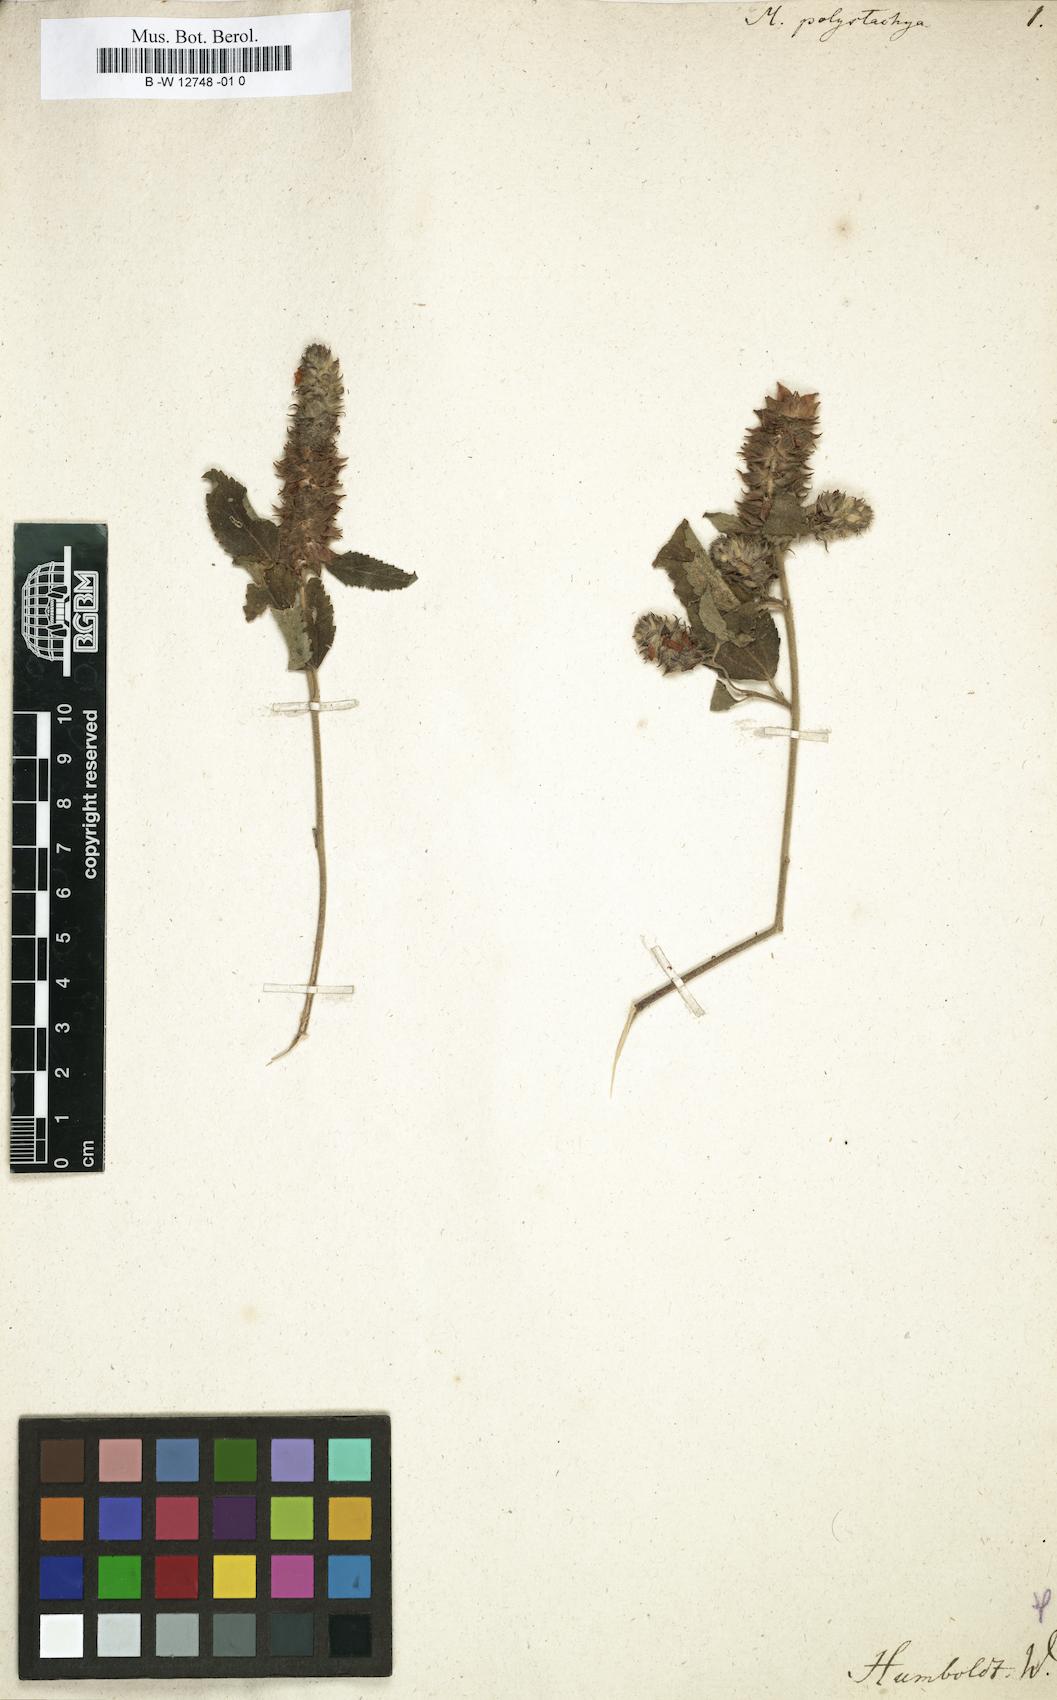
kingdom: Plantae
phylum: Tracheophyta
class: Magnoliopsida
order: Malvales
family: Malvaceae
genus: Malvastrum
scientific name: Malvastrum americanum
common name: Spiked malvastrum
